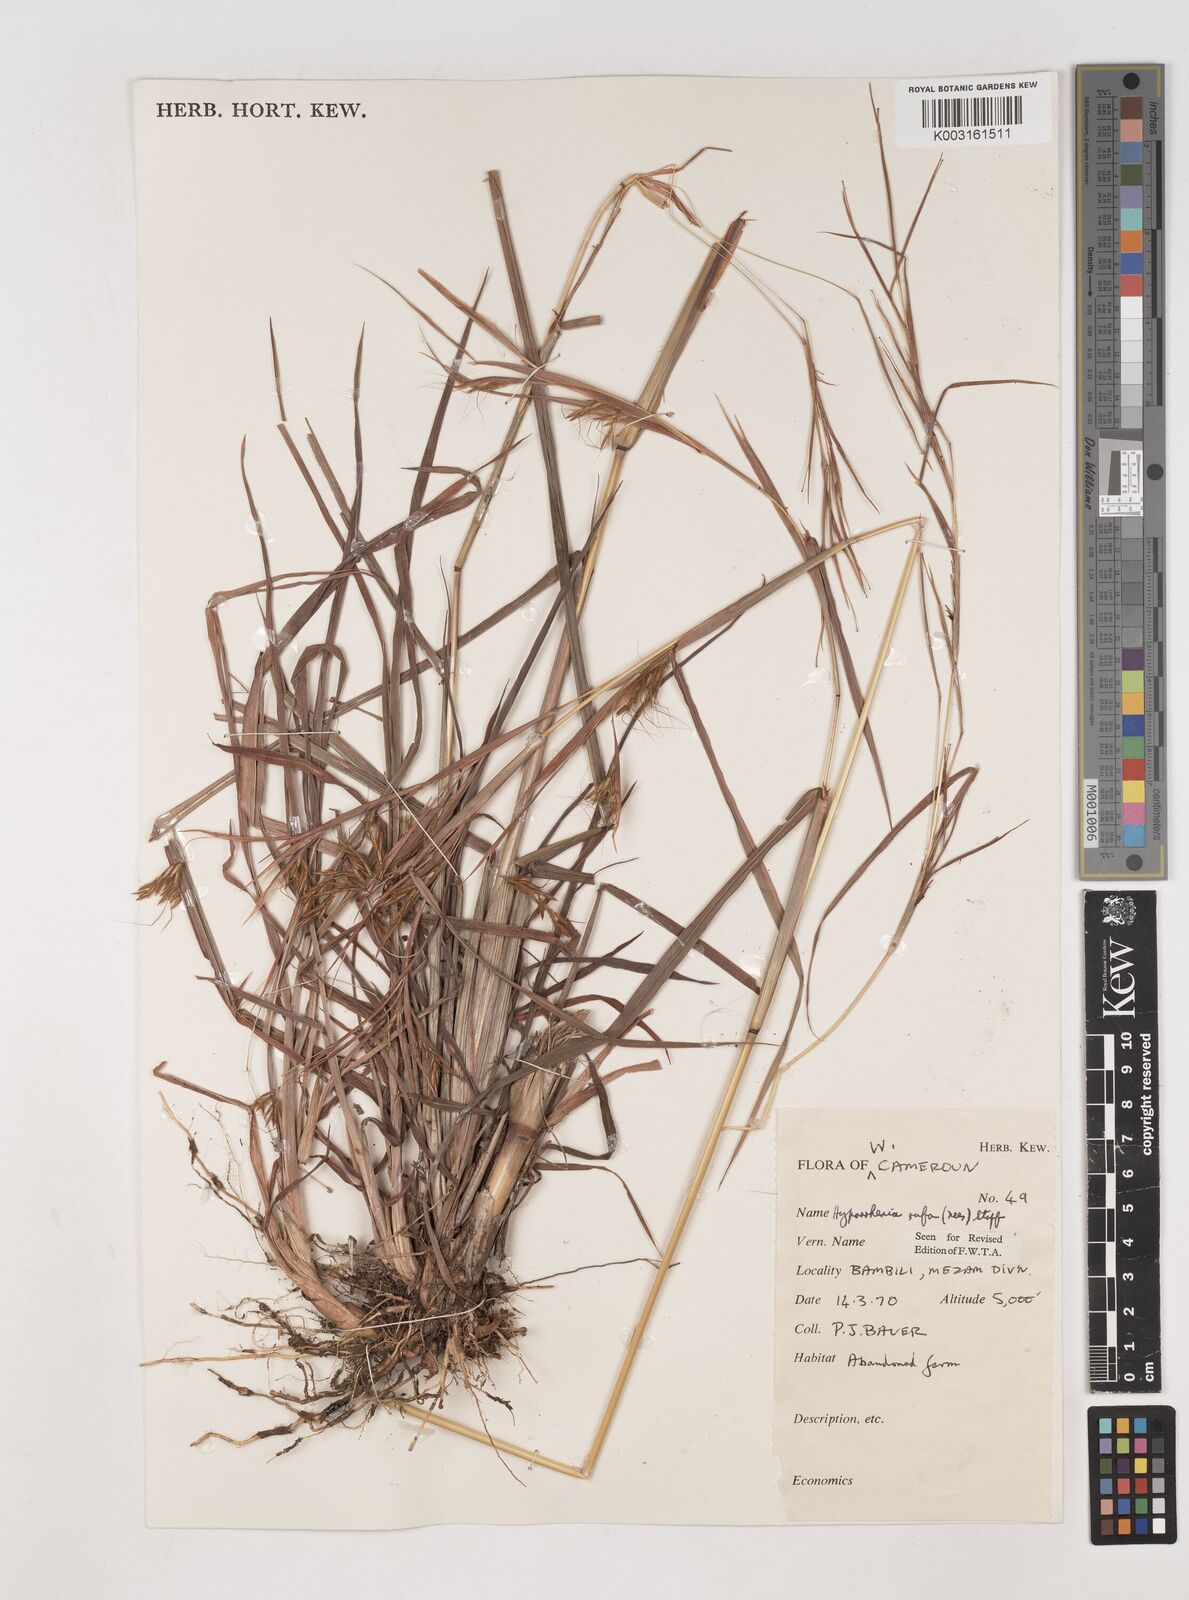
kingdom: Plantae
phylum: Tracheophyta
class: Liliopsida
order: Poales
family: Poaceae
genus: Hyparrhenia
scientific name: Hyparrhenia rufa
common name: Jaraguagrass
